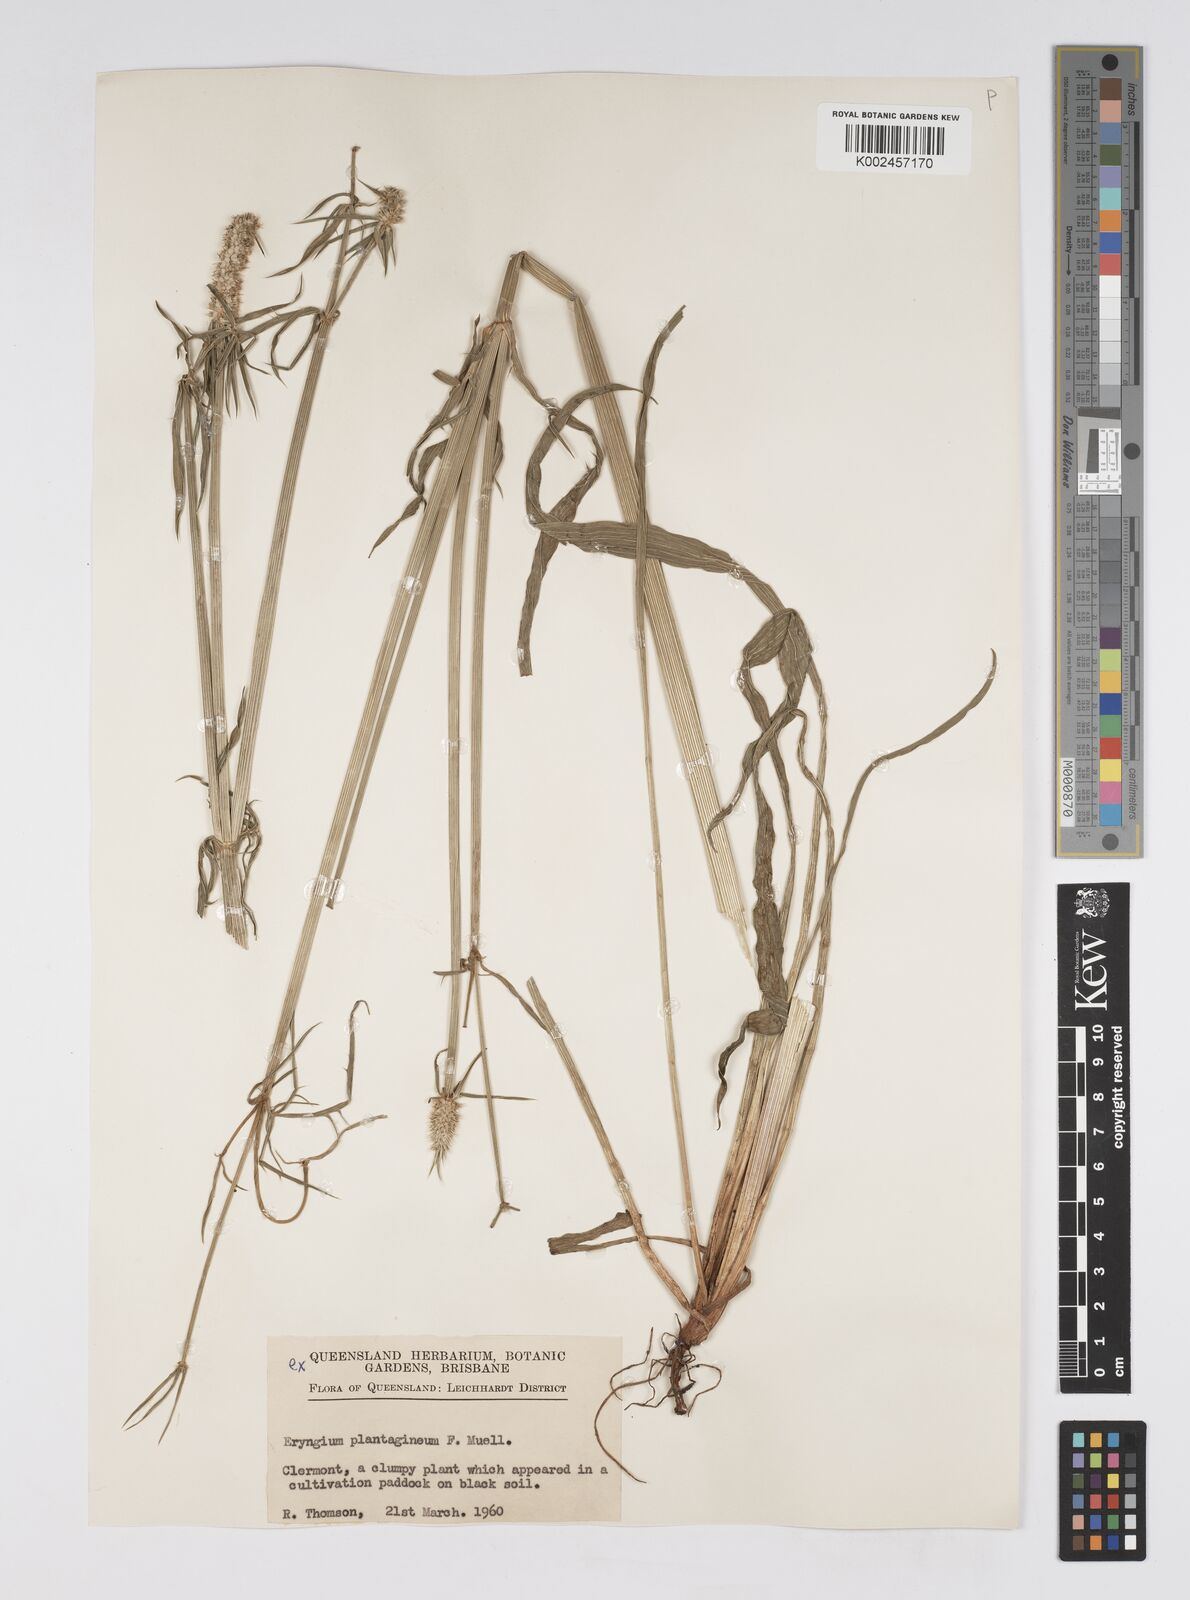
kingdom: Plantae
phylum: Tracheophyta
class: Magnoliopsida
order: Apiales
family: Apiaceae
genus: Eryngium
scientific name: Eryngium plantagineum
